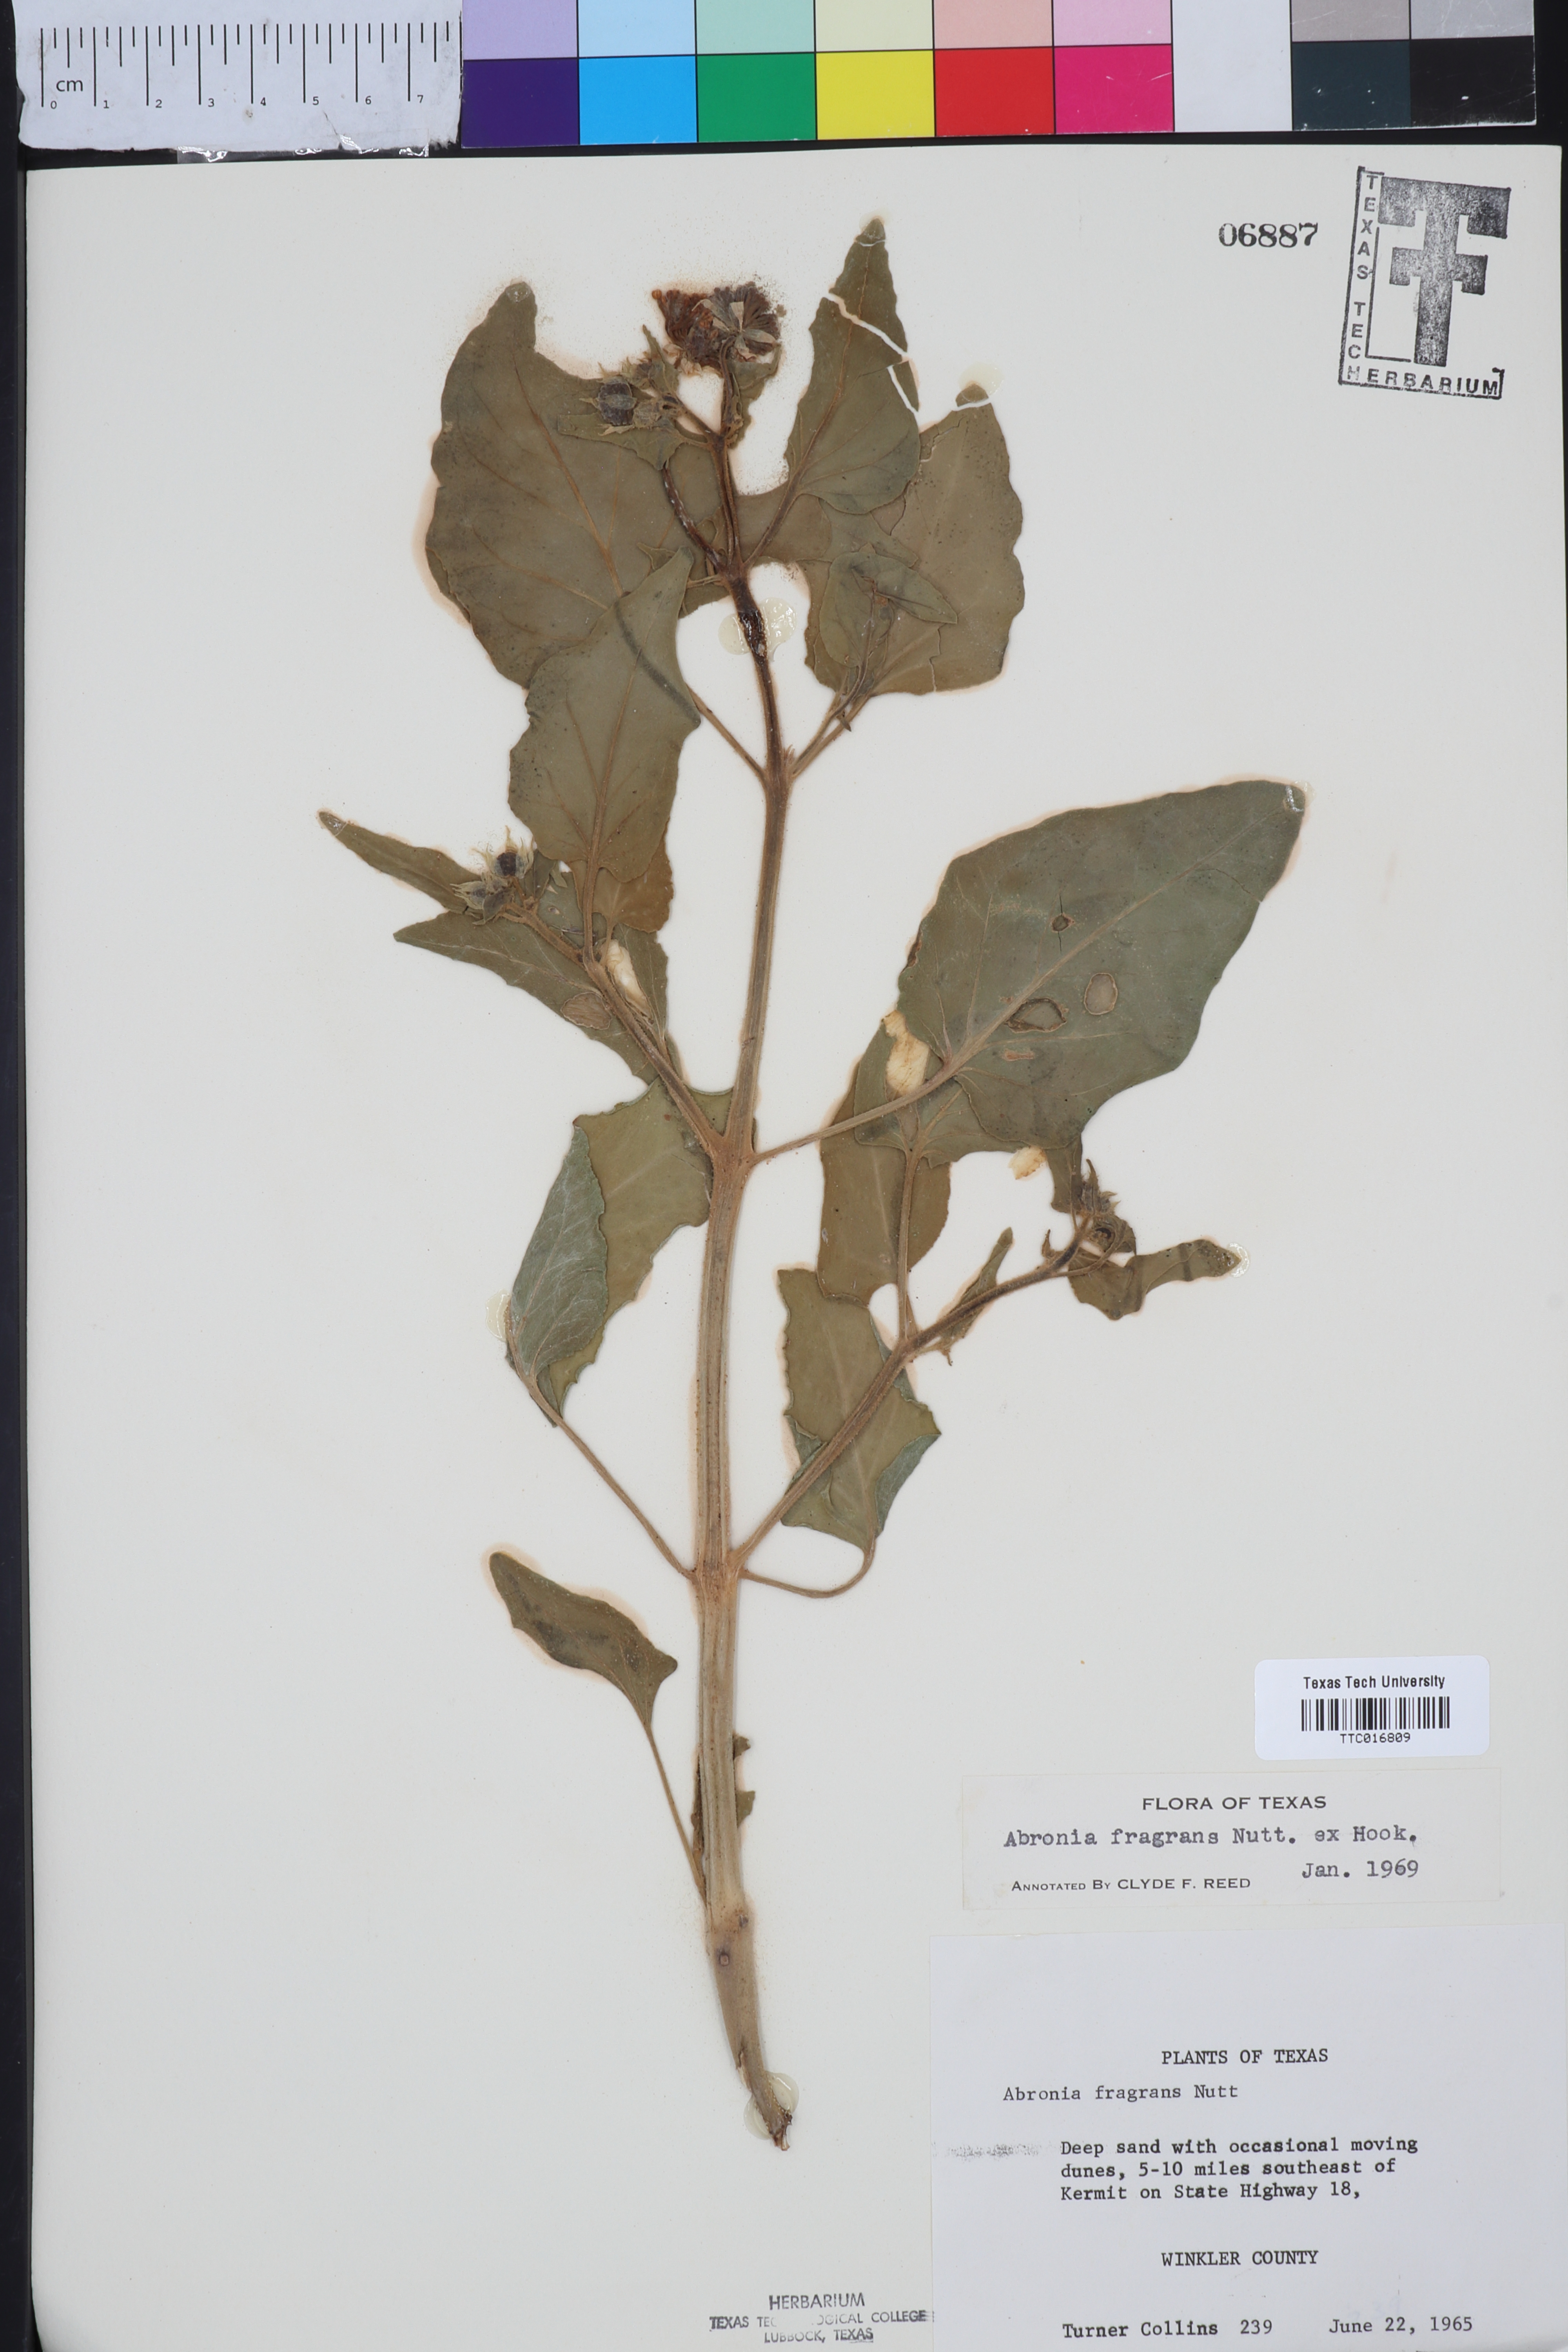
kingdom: Plantae
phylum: Tracheophyta
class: Magnoliopsida
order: Caryophyllales
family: Nyctaginaceae
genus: Abronia
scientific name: Abronia fragrans
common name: Fragrant sand-verbena
